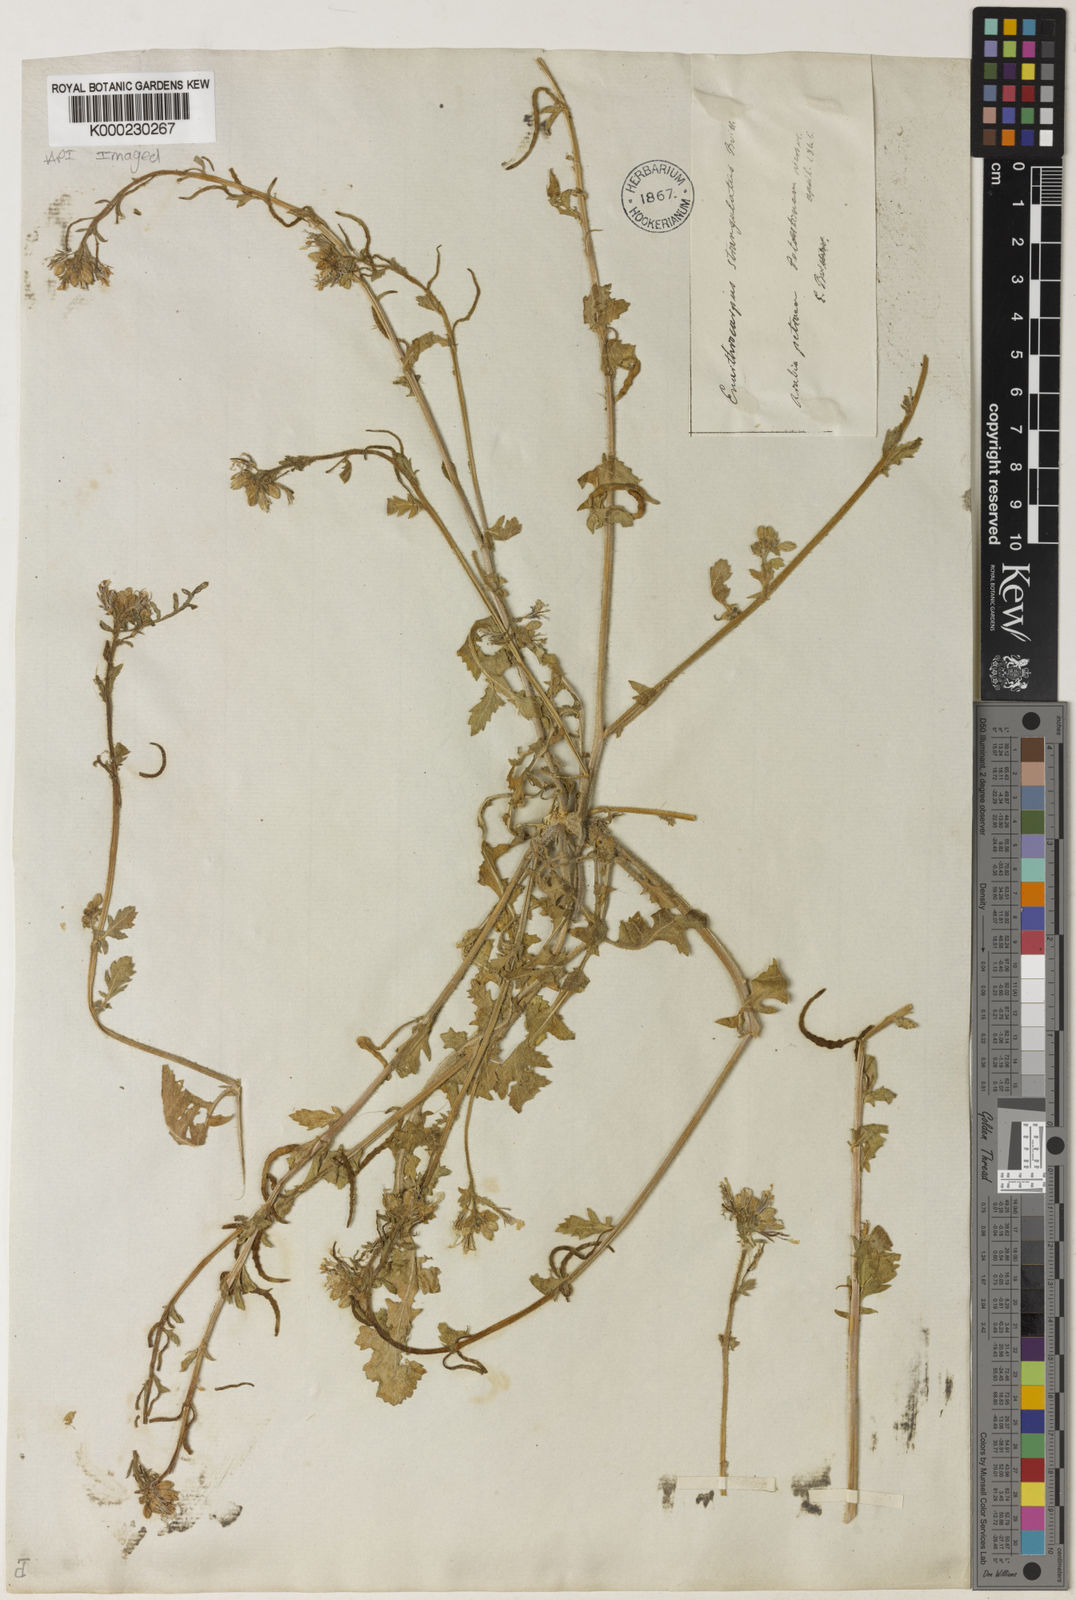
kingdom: Plantae
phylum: Tracheophyta
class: Magnoliopsida
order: Brassicales
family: Brassicaceae
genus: Enarthrocarpus
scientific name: Enarthrocarpus strangulatus
